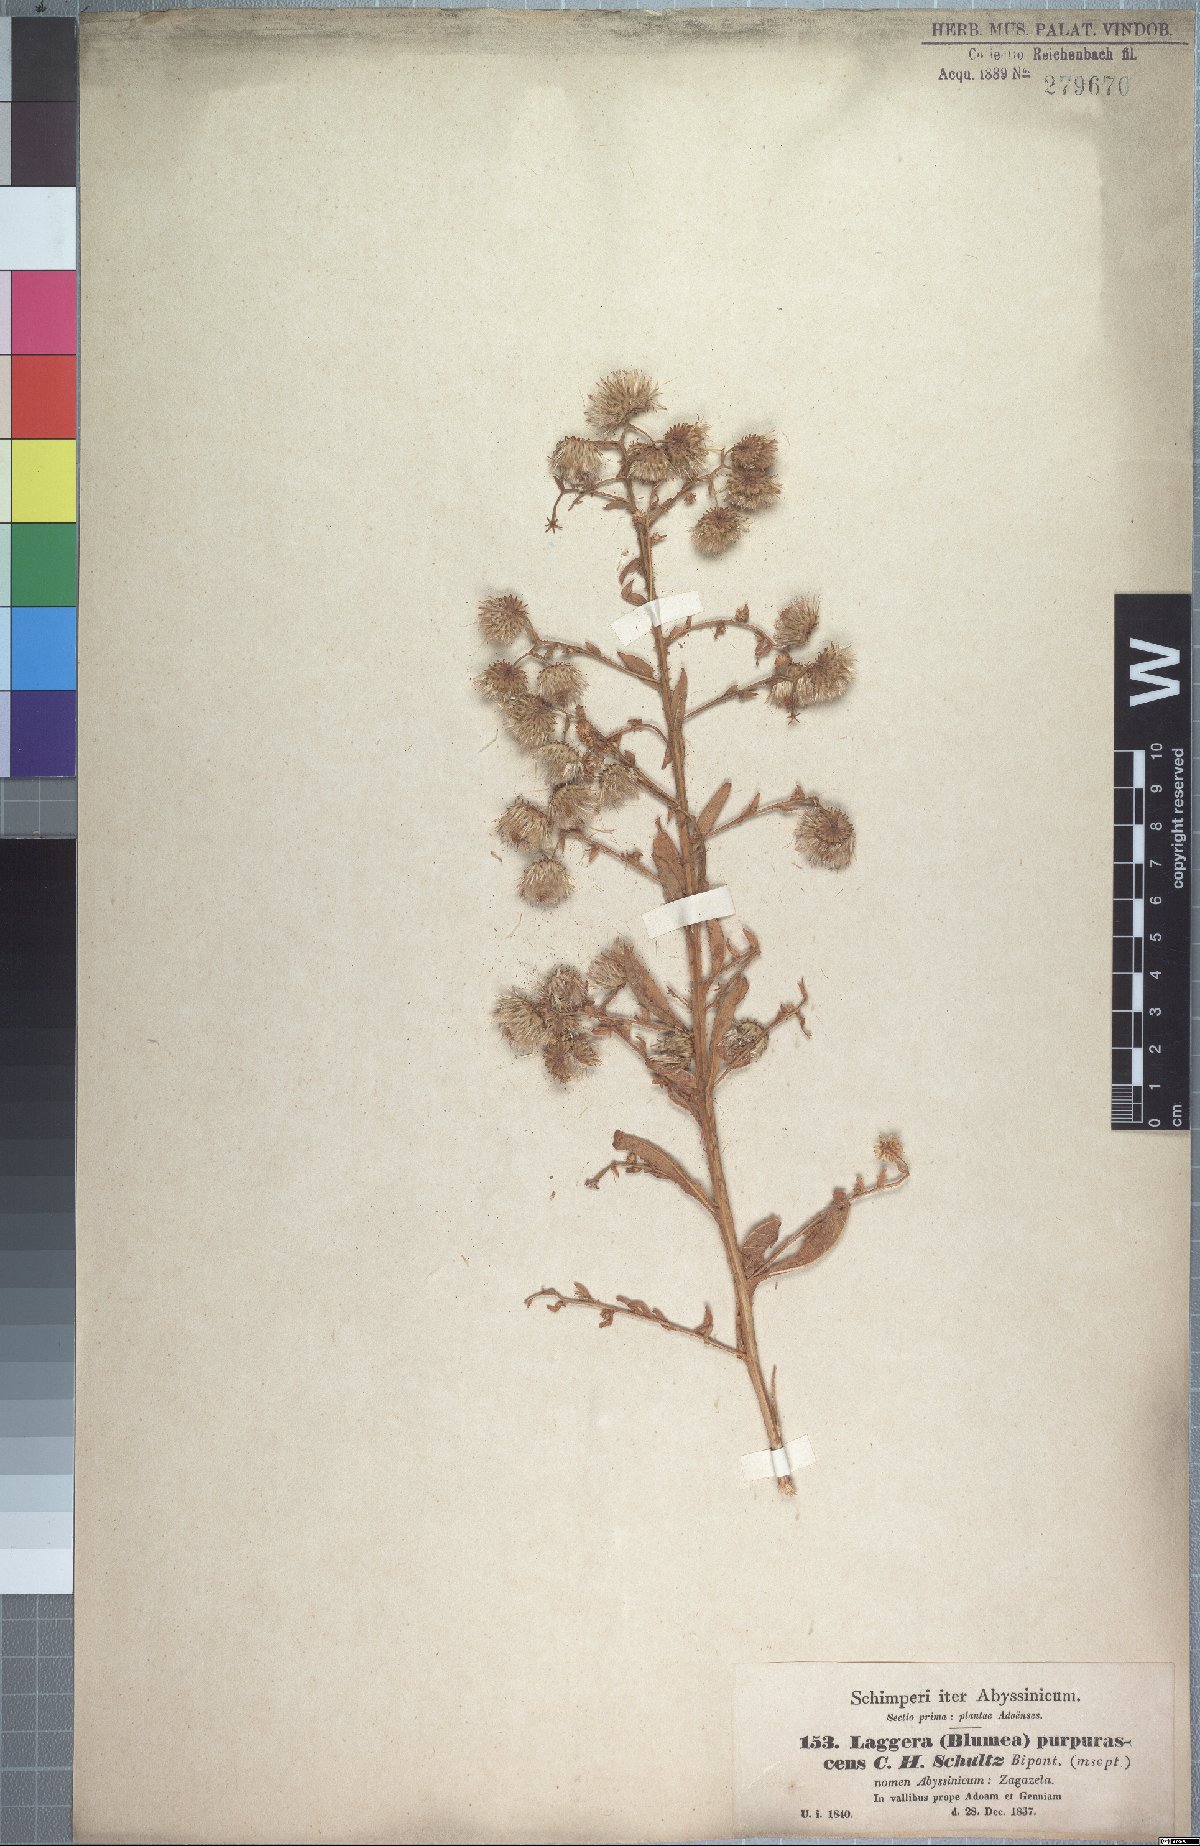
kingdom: Plantae
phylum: Tracheophyta
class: Magnoliopsida
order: Asterales
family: Asteraceae
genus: Laggera
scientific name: Laggera crispata
